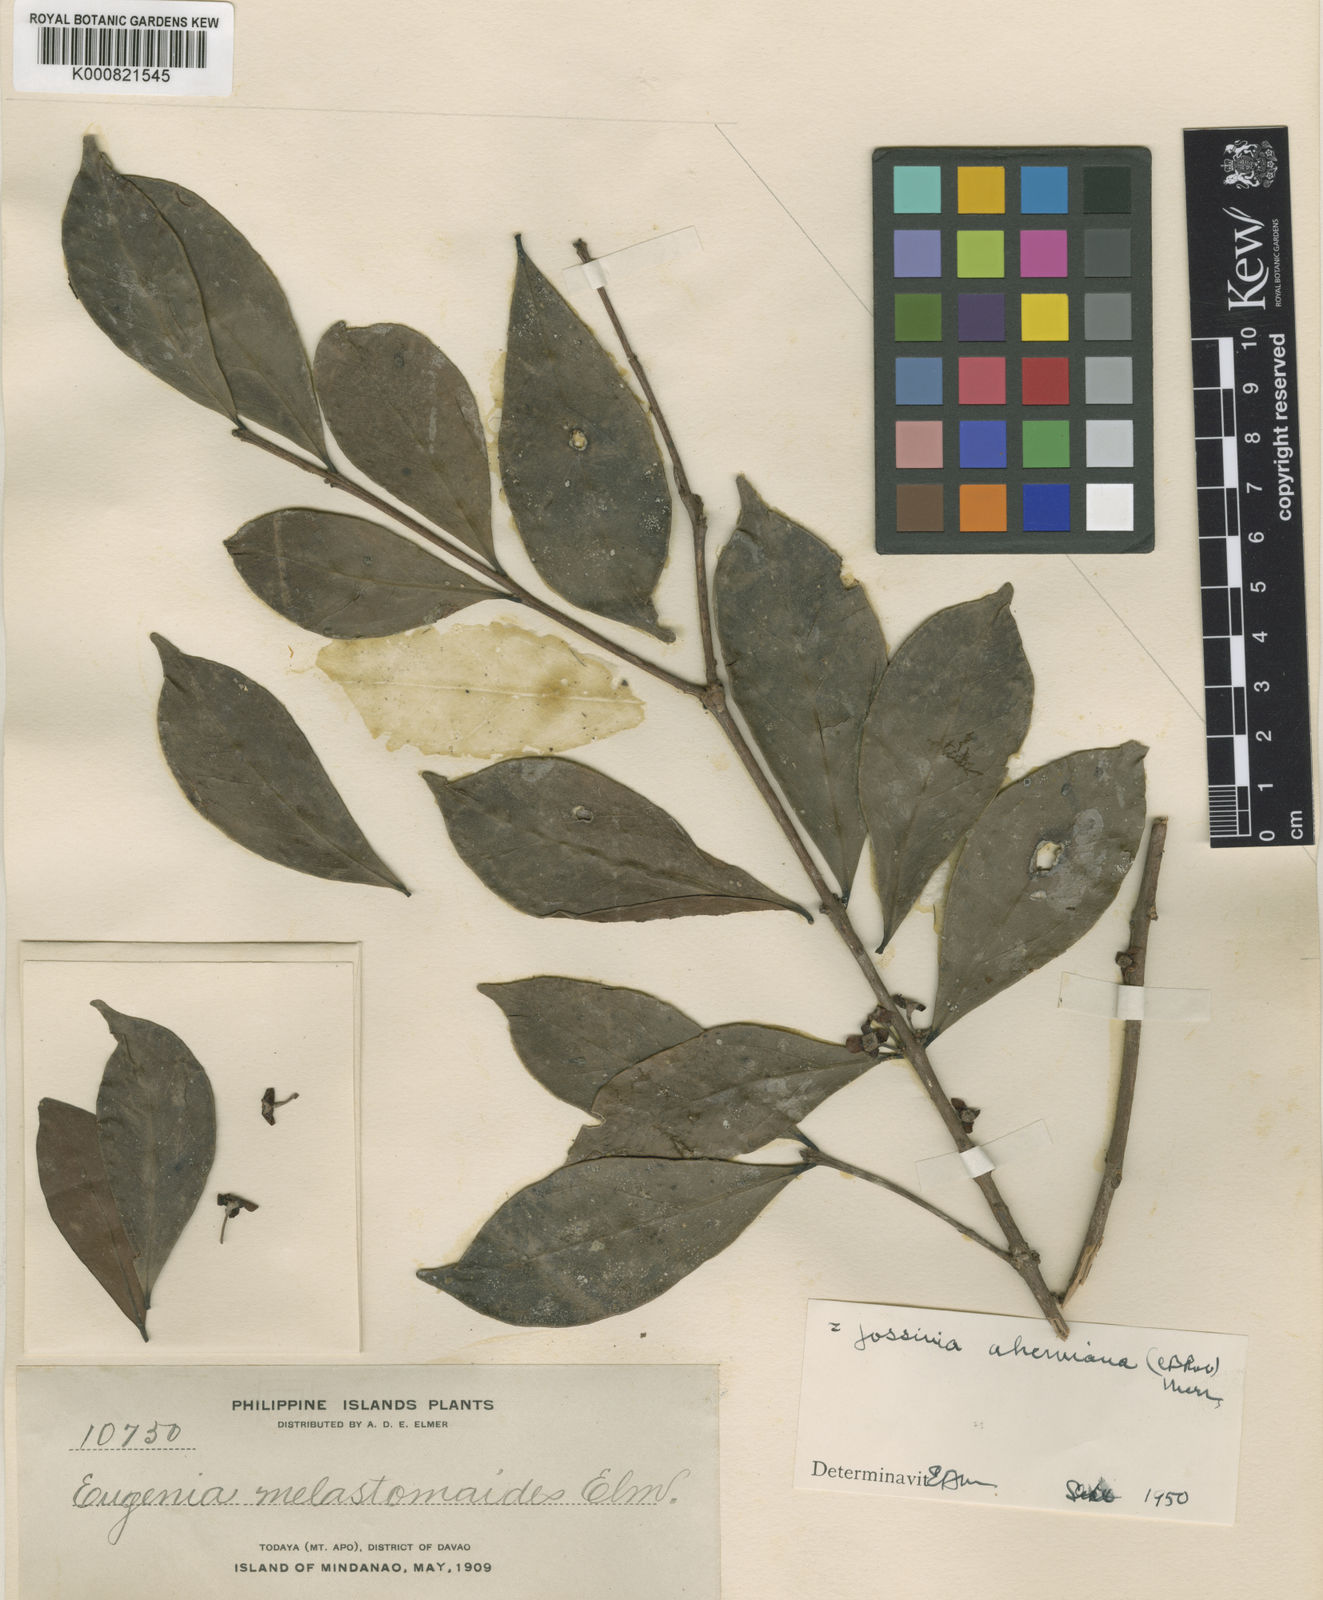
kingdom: Plantae
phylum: Tracheophyta
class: Magnoliopsida
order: Myrtales
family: Myrtaceae
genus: Eugenia
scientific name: Eugenia aherniana
